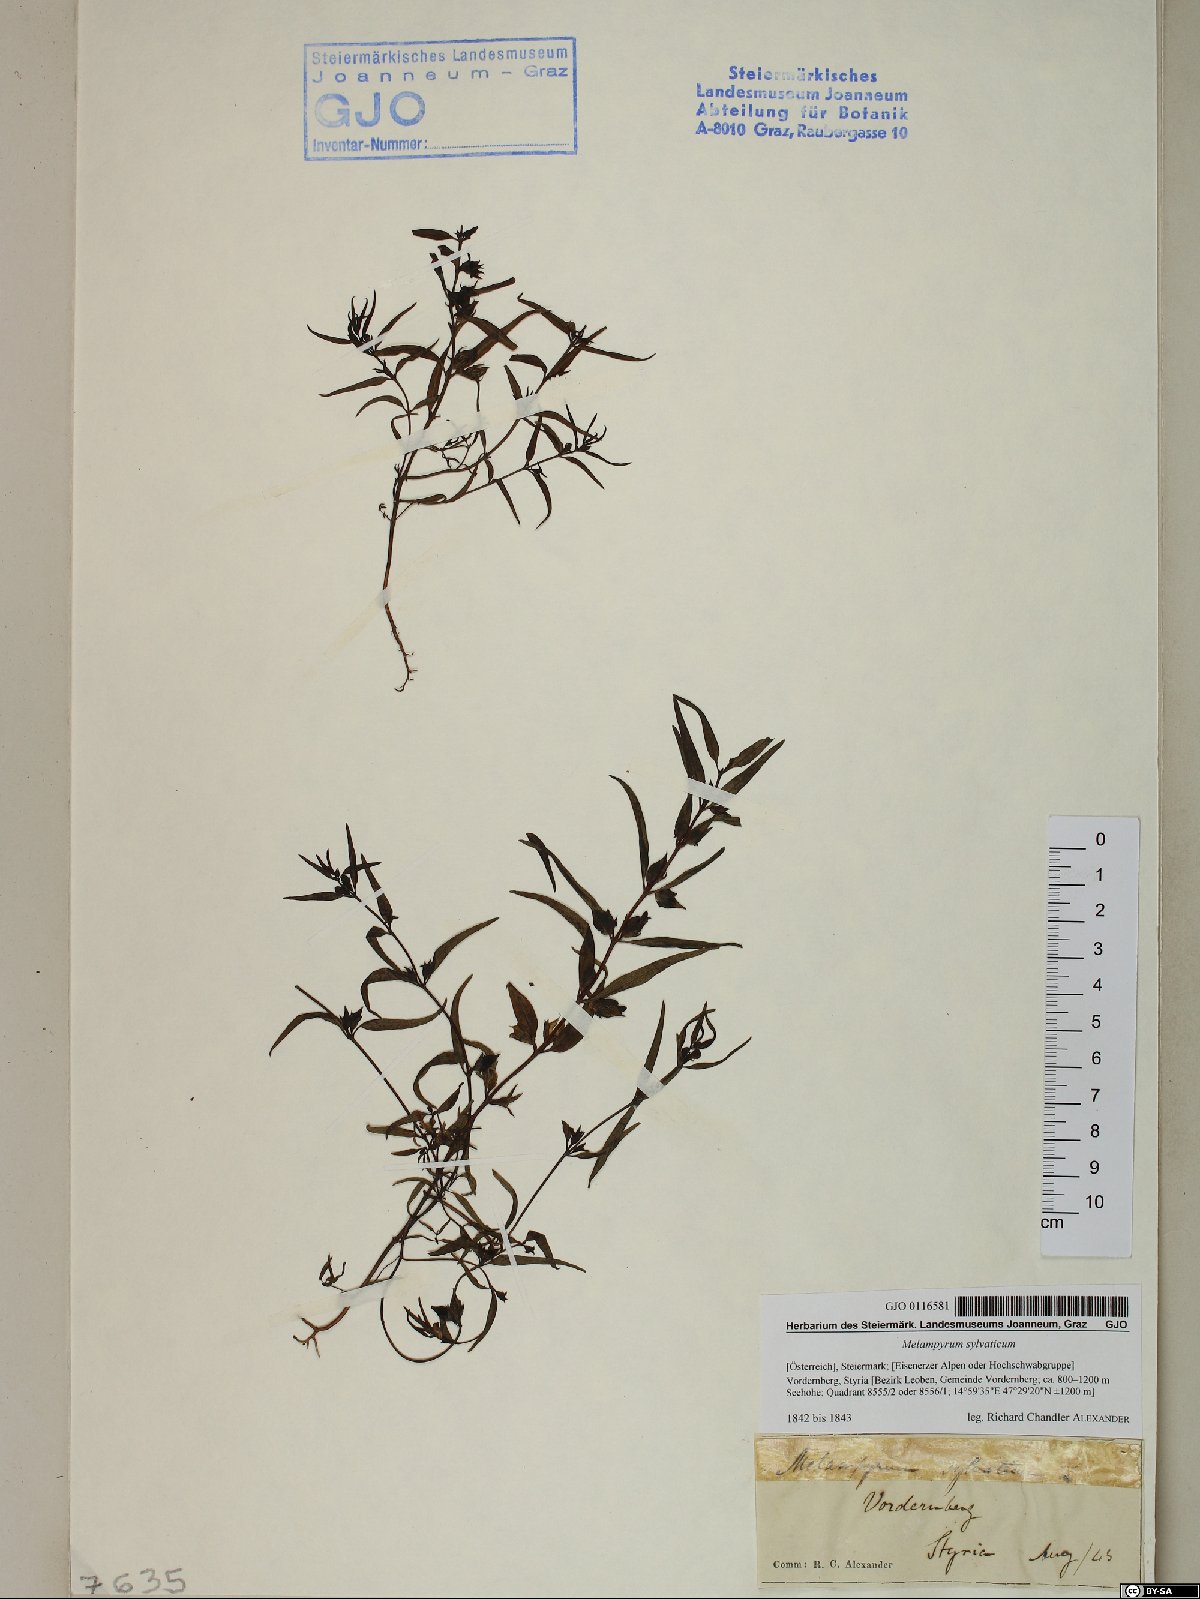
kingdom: Plantae
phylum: Tracheophyta
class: Magnoliopsida
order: Lamiales
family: Orobanchaceae
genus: Melampyrum
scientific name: Melampyrum sylvaticum
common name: Small cow-wheat
